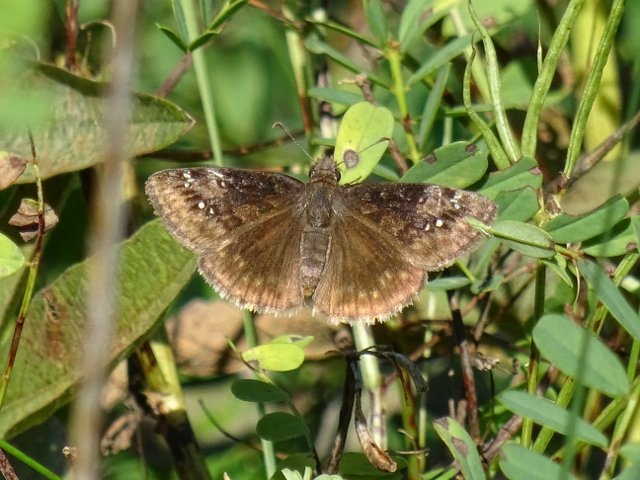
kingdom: Animalia
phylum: Arthropoda
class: Insecta
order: Lepidoptera
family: Hesperiidae
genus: Gesta
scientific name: Gesta
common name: Wild Indigo Duskywing
